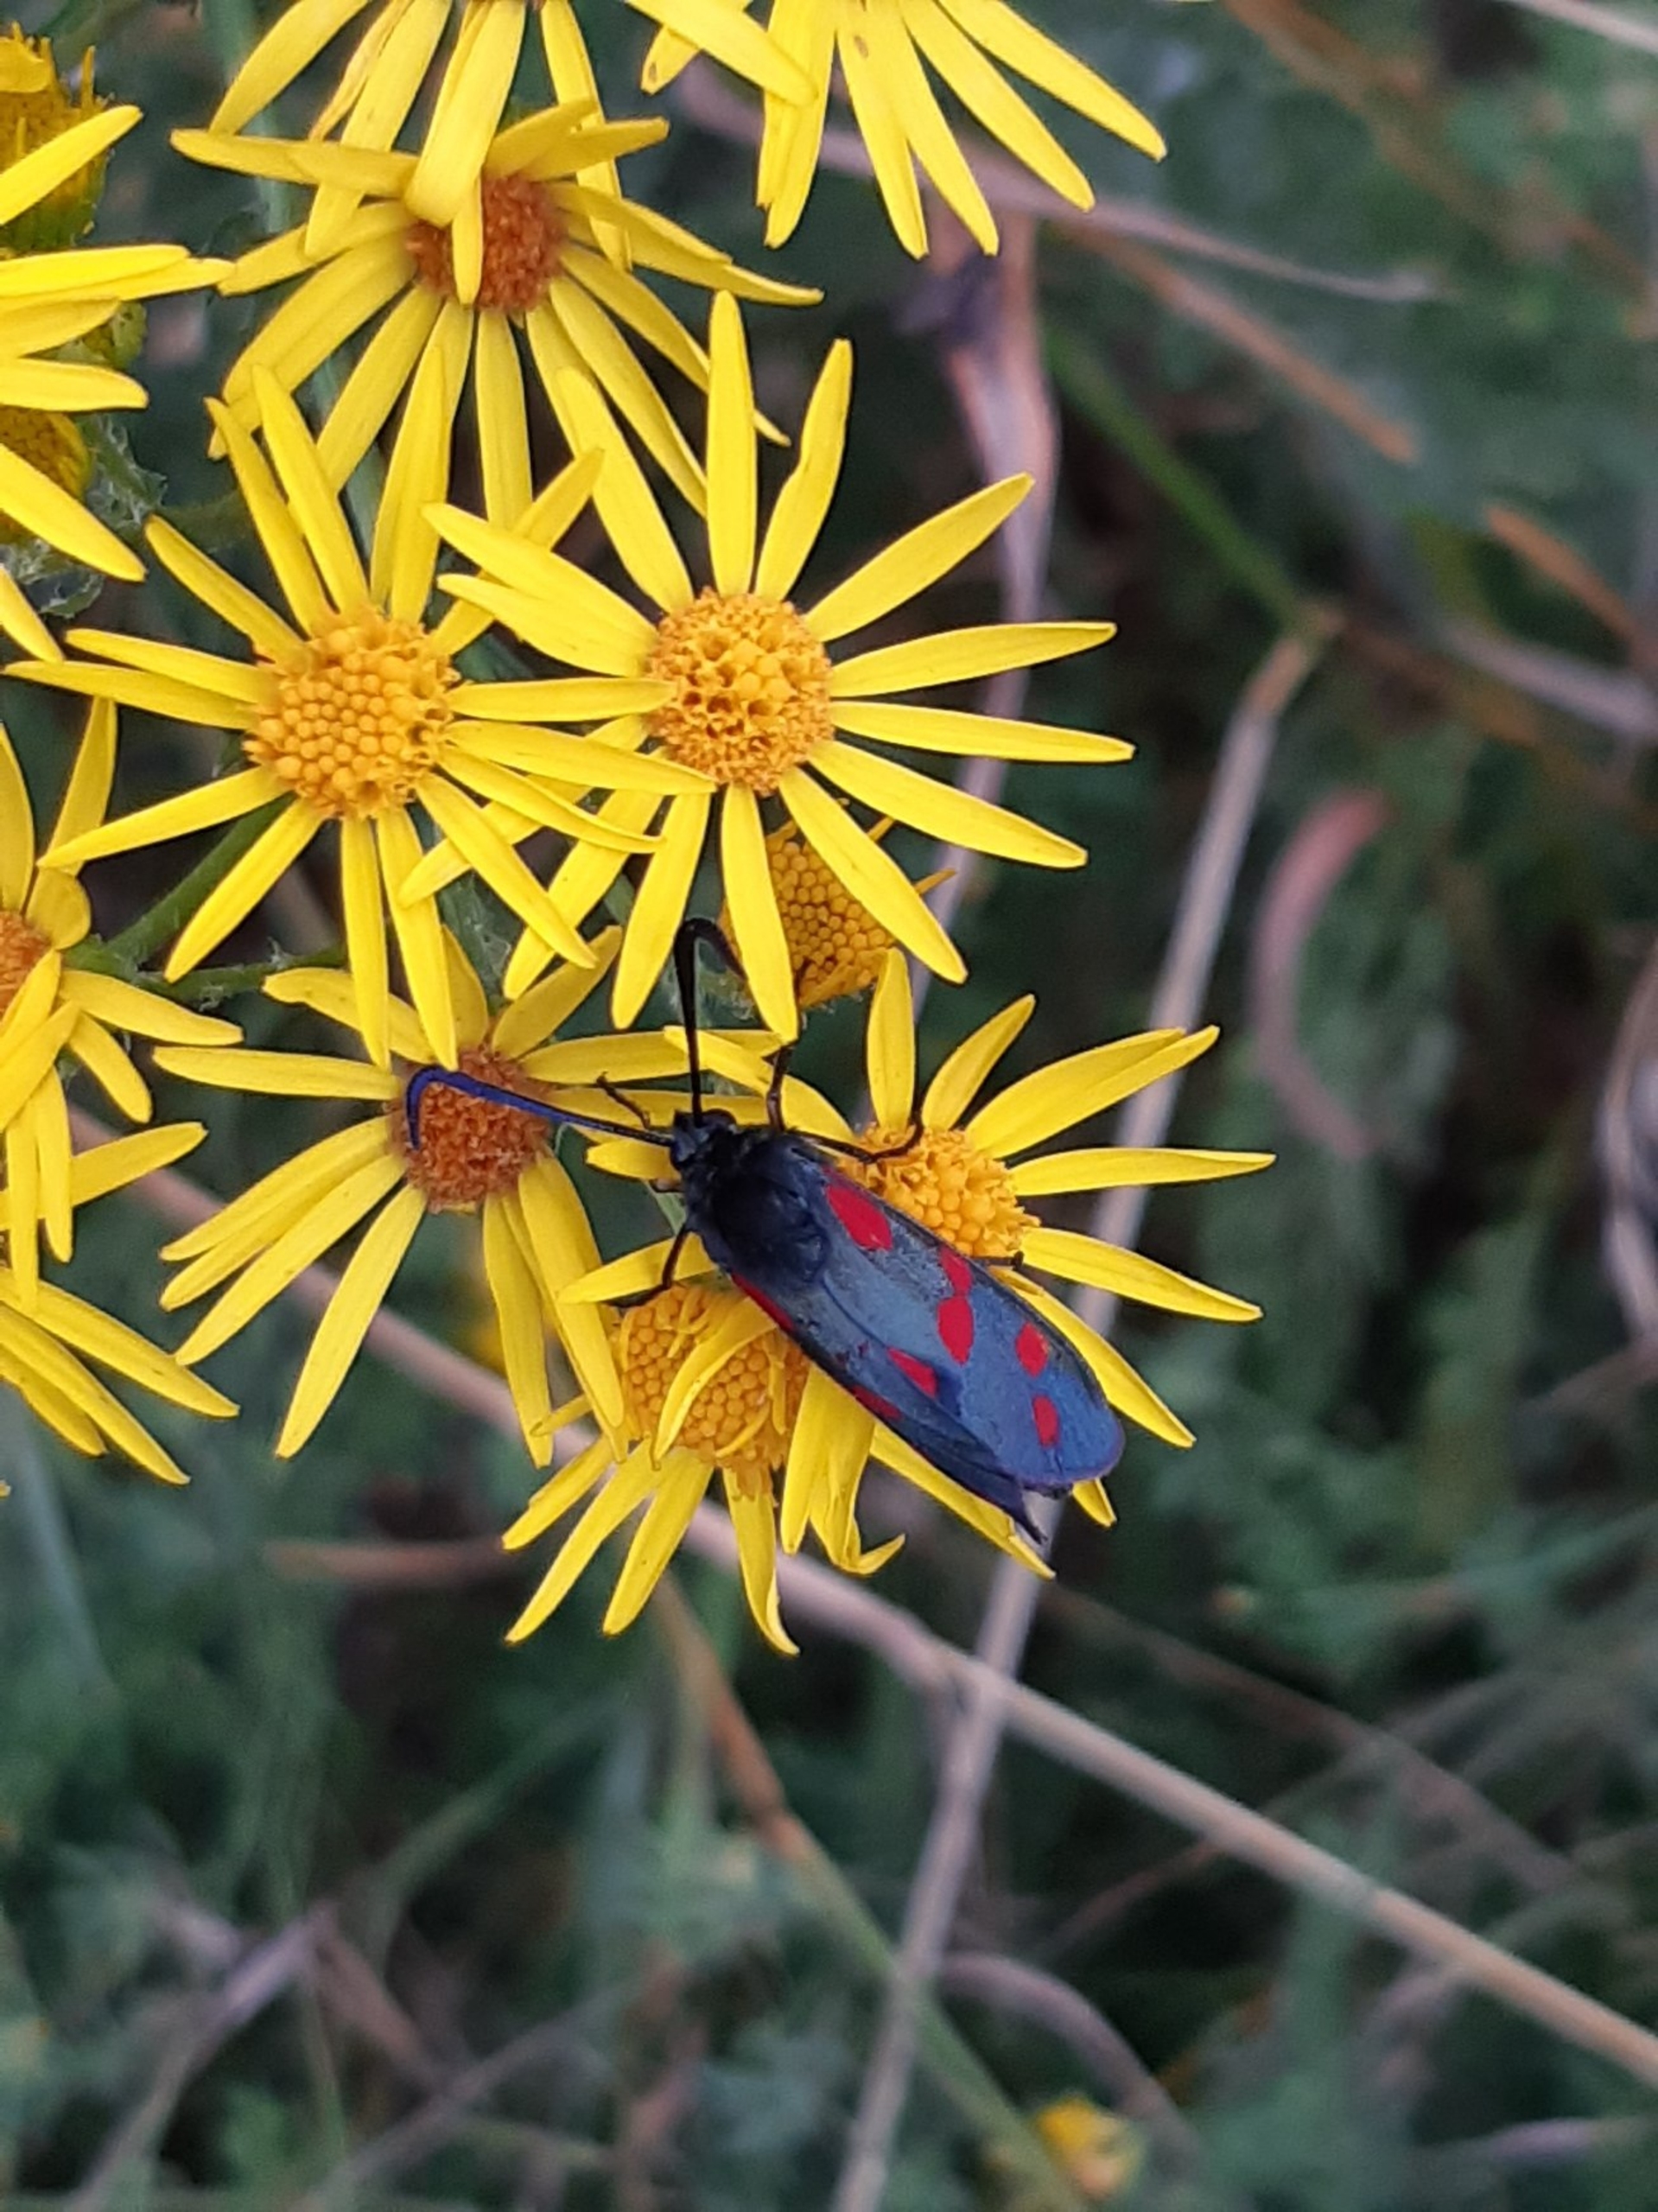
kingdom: Animalia
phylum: Arthropoda
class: Insecta
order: Lepidoptera
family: Zygaenidae
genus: Zygaena
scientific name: Zygaena filipendulae
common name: Seksplettet køllesværmer
